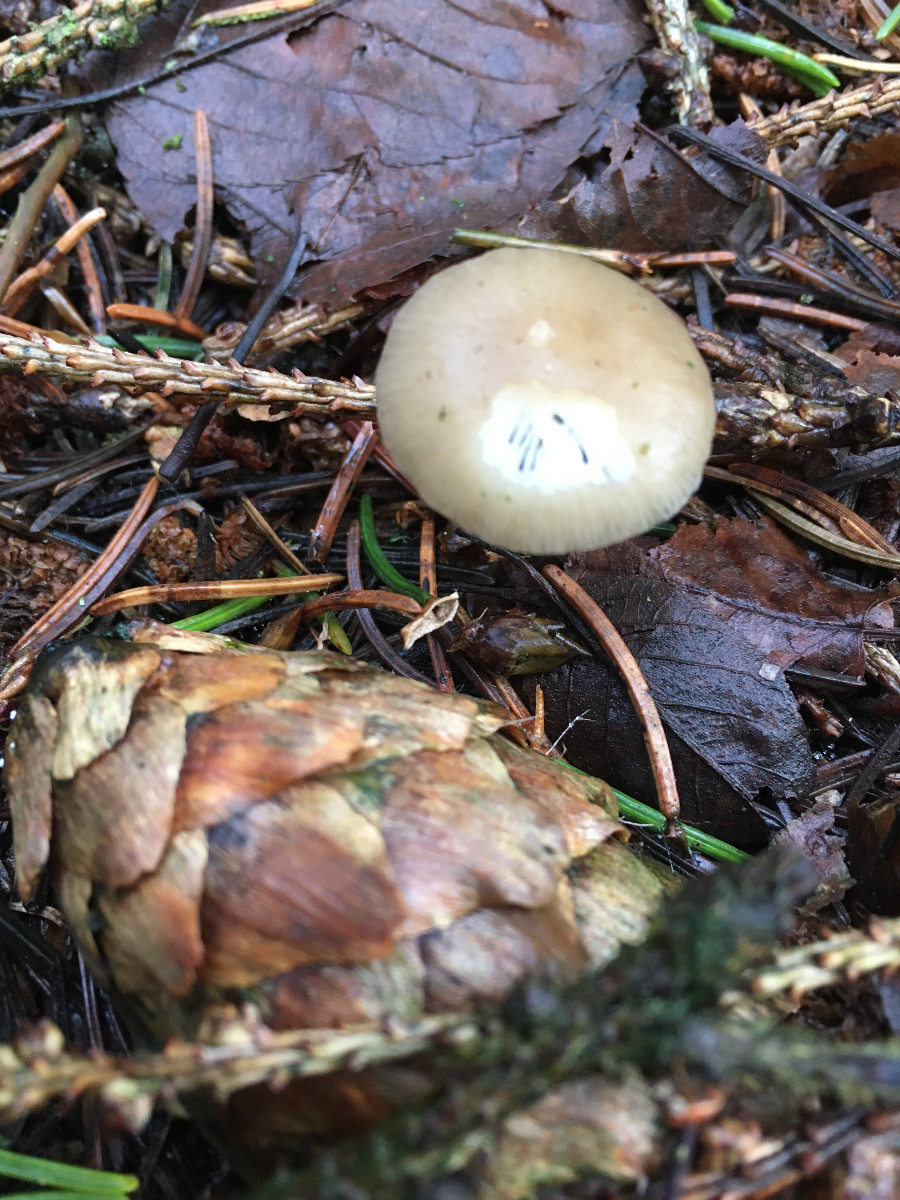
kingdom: Fungi
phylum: Basidiomycota
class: Agaricomycetes
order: Agaricales
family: Physalacriaceae
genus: Strobilurus
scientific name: Strobilurus esculentus
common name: gran-koglehat
